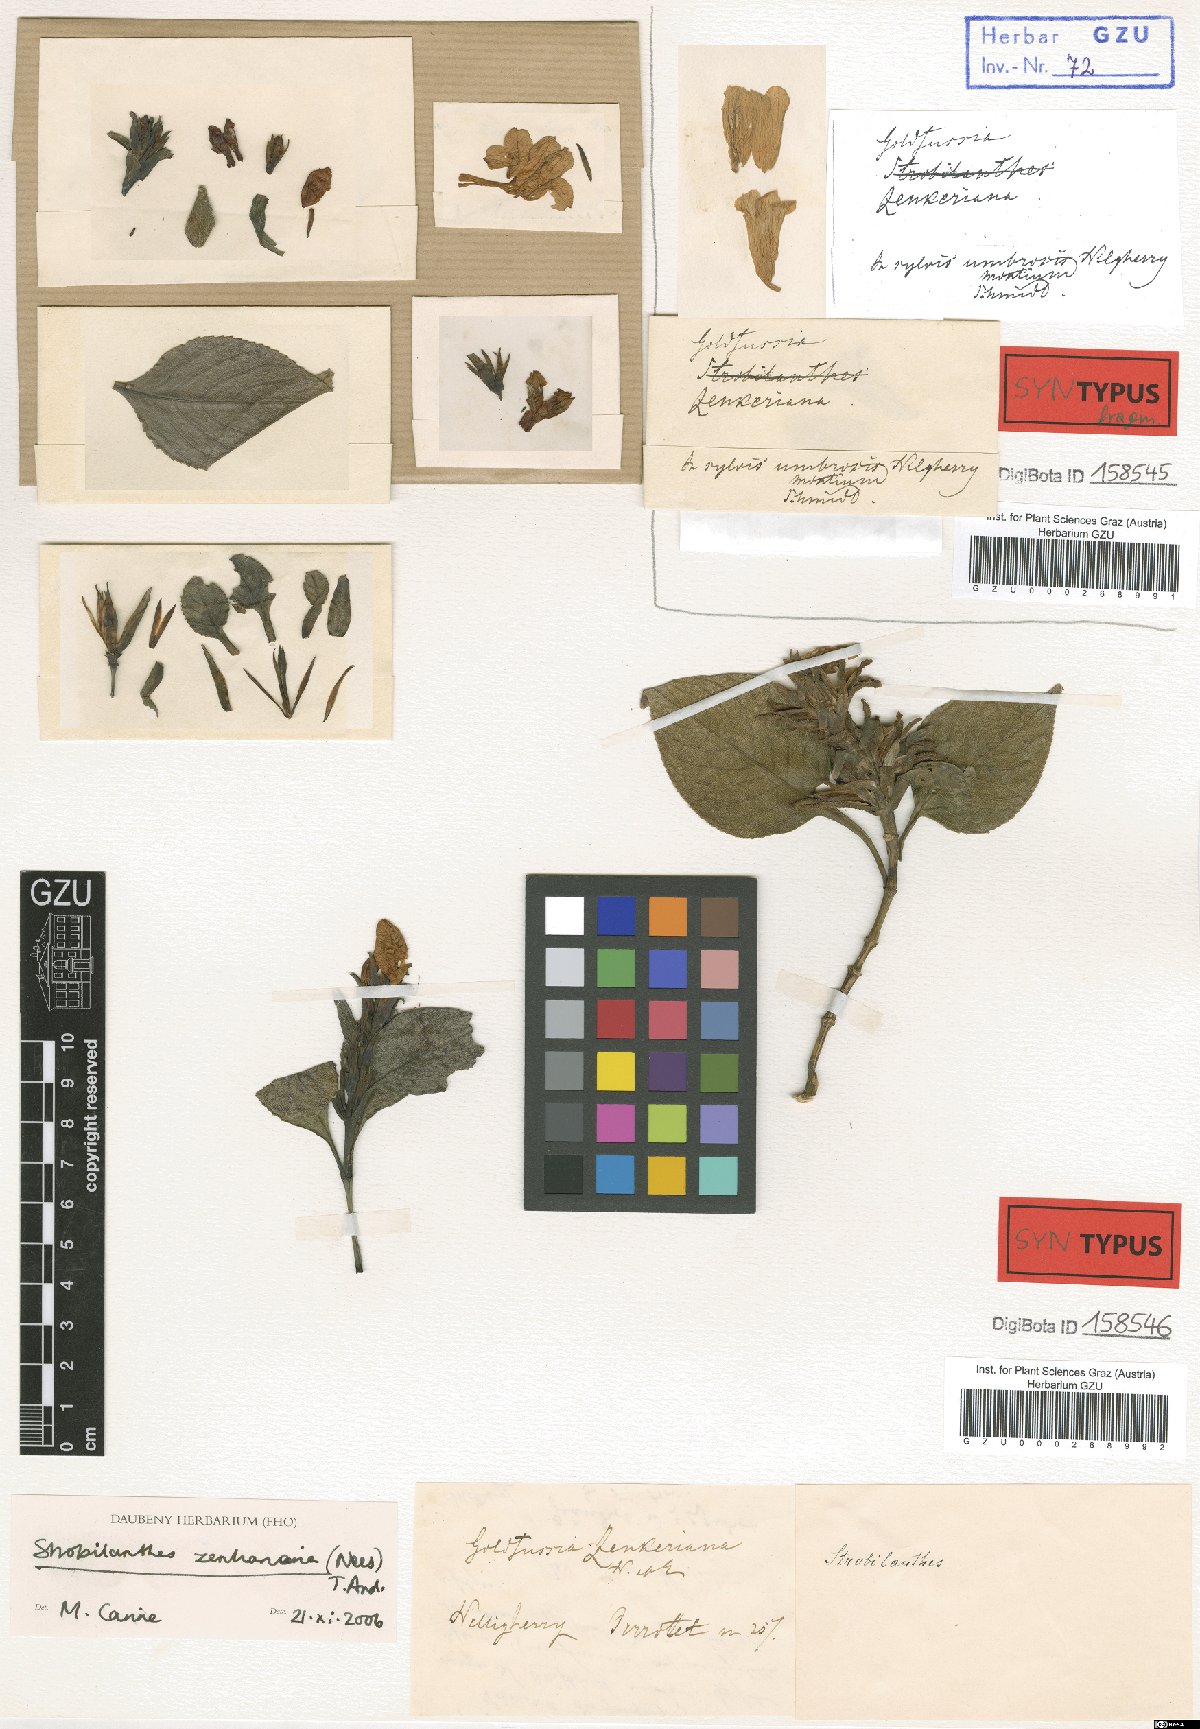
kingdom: Plantae
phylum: Tracheophyta
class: Magnoliopsida
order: Lamiales
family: Acanthaceae
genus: Strobilanthes
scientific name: Strobilanthes zenkeriana
